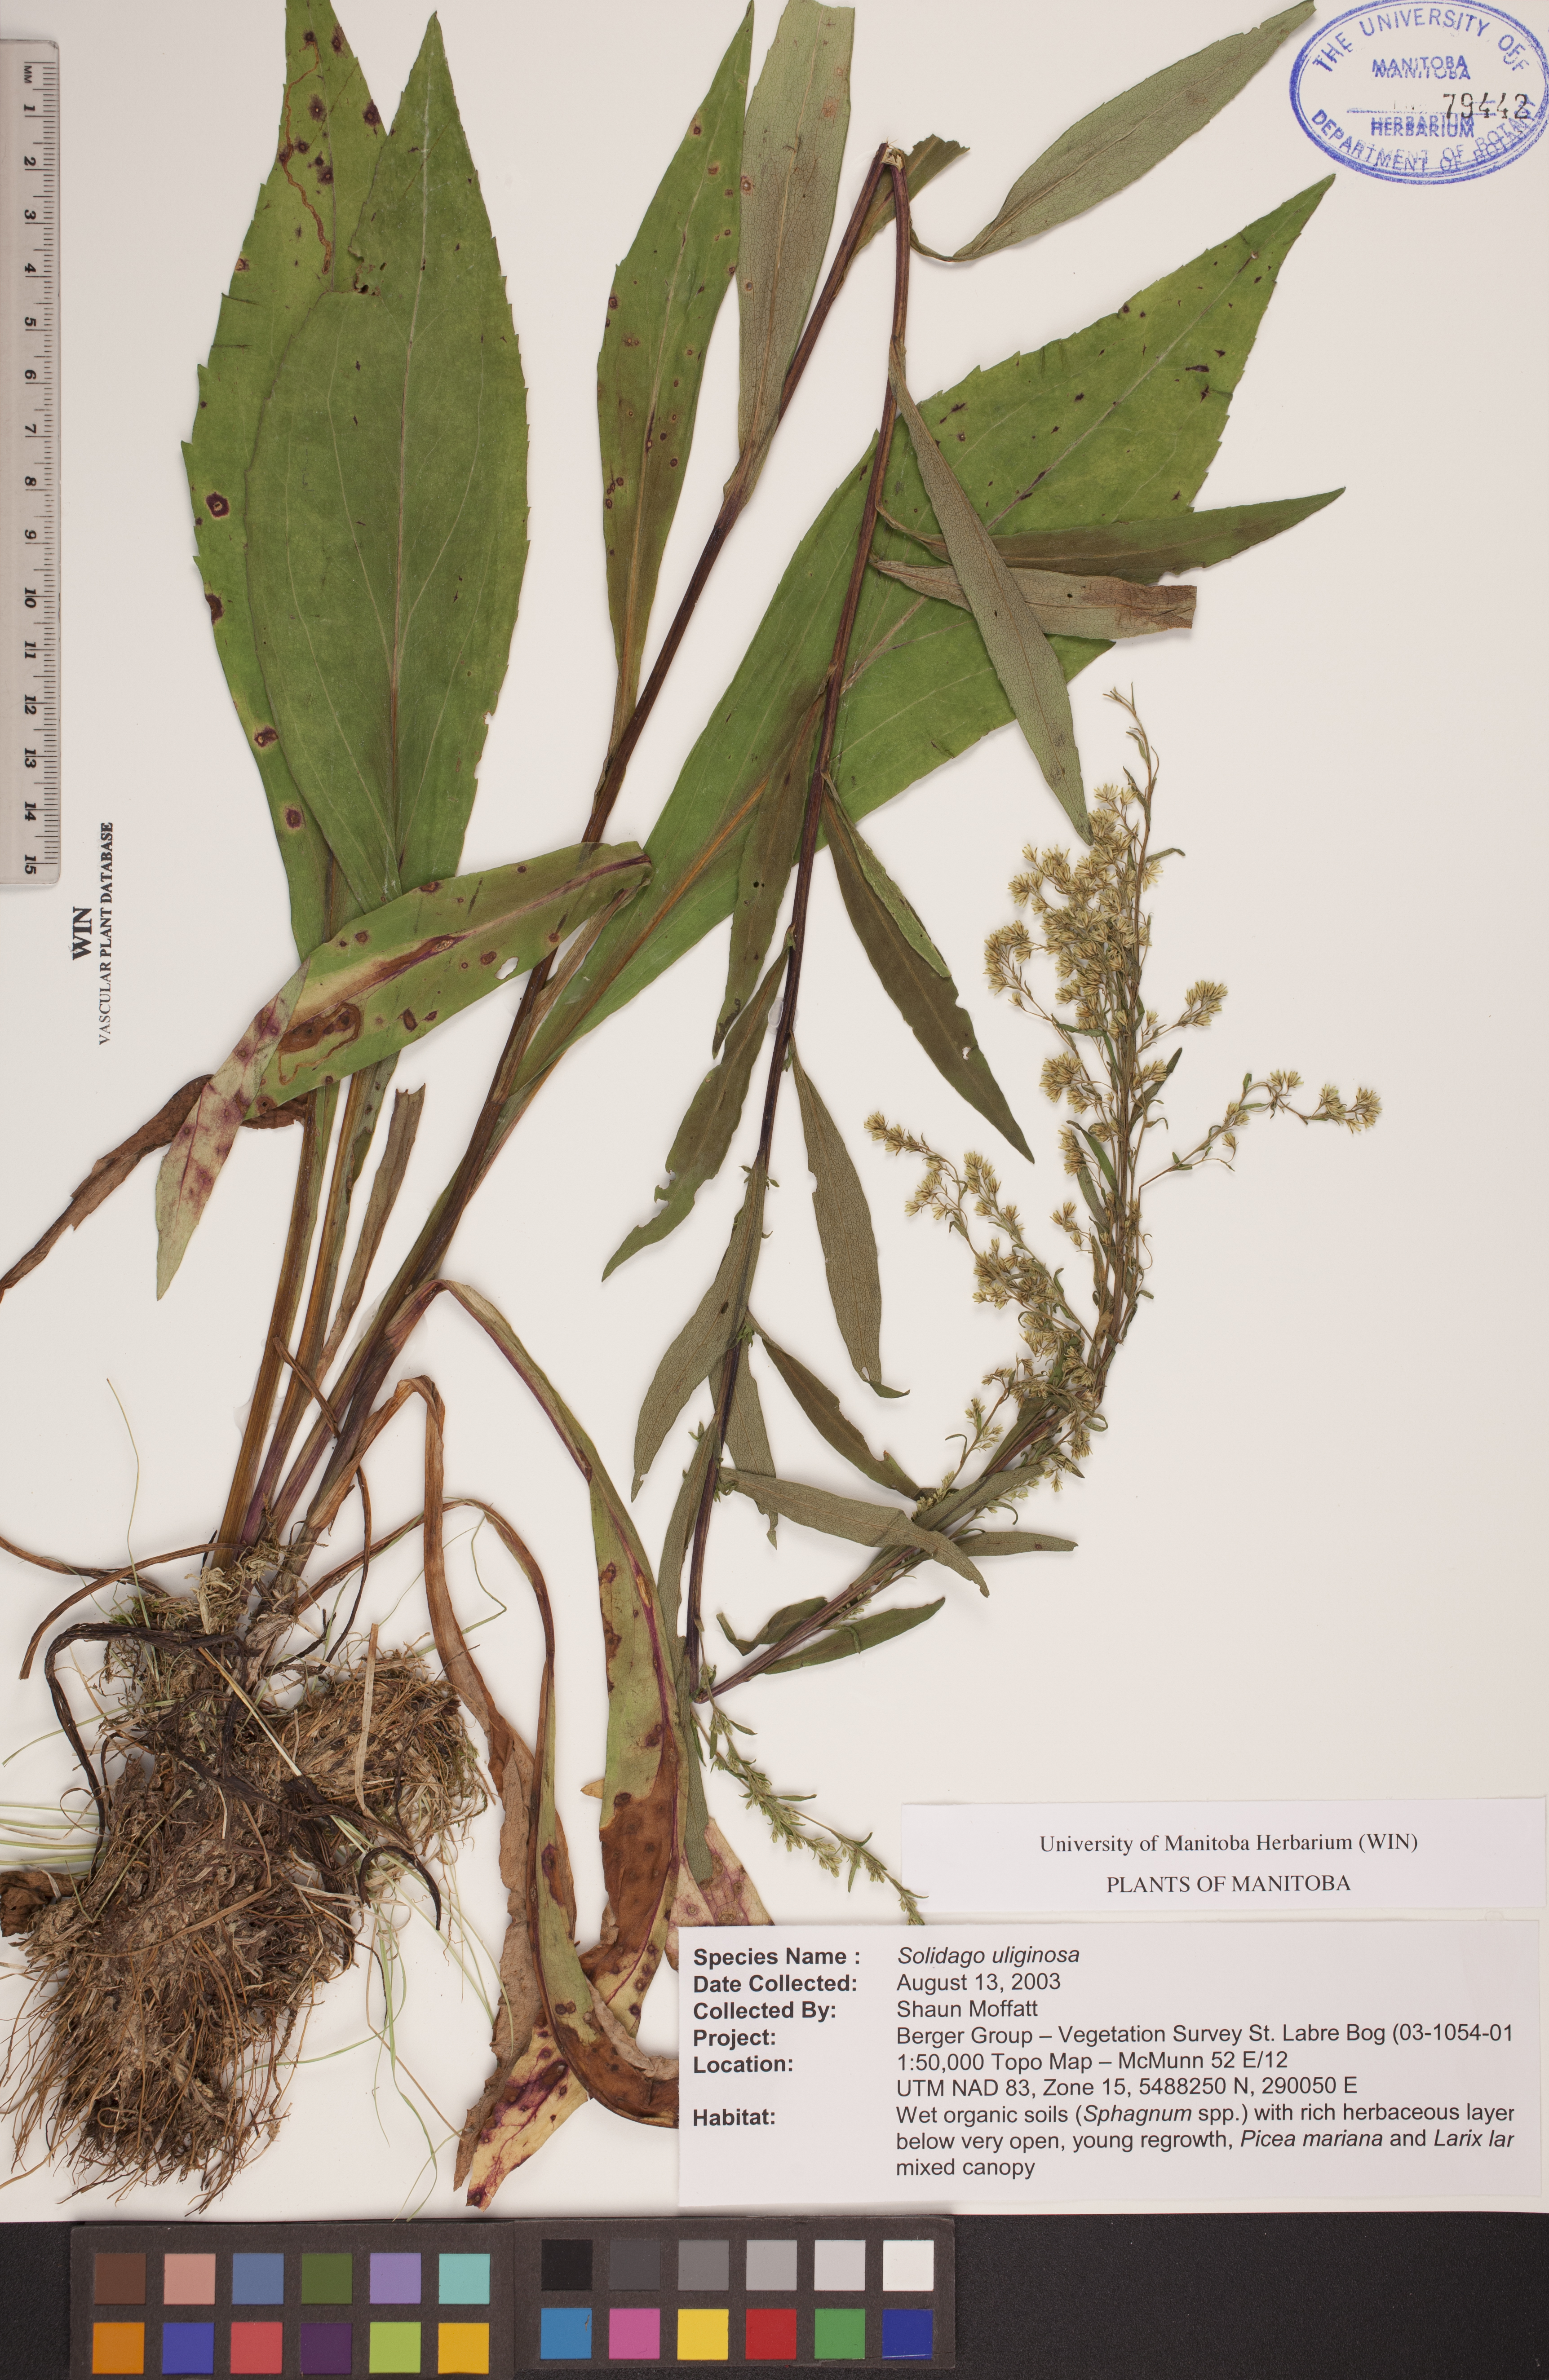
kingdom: Plantae
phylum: Tracheophyta
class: Magnoliopsida
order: Asterales
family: Asteraceae
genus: Solidago
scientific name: Solidago uliginosa
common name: Bog goldenrod
